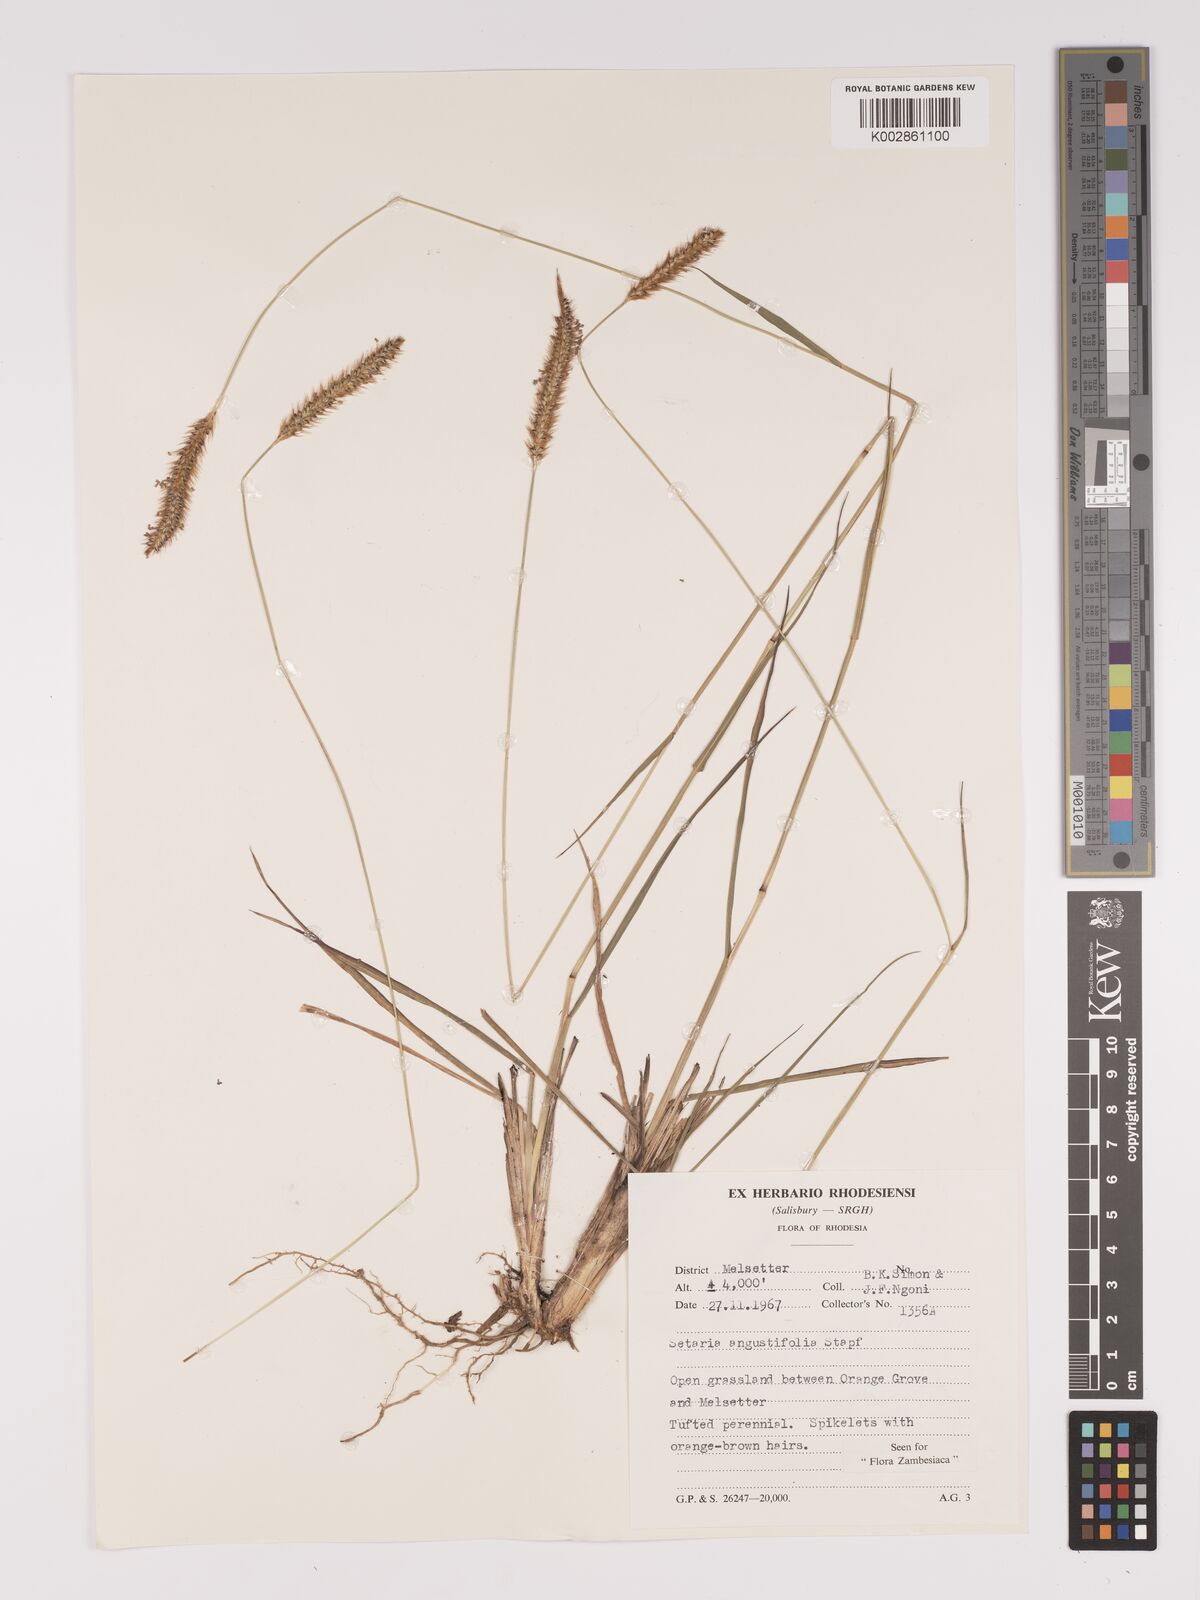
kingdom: Plantae
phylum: Tracheophyta
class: Liliopsida
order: Poales
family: Poaceae
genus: Setaria
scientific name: Setaria sphacelata
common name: African bristlegrass
